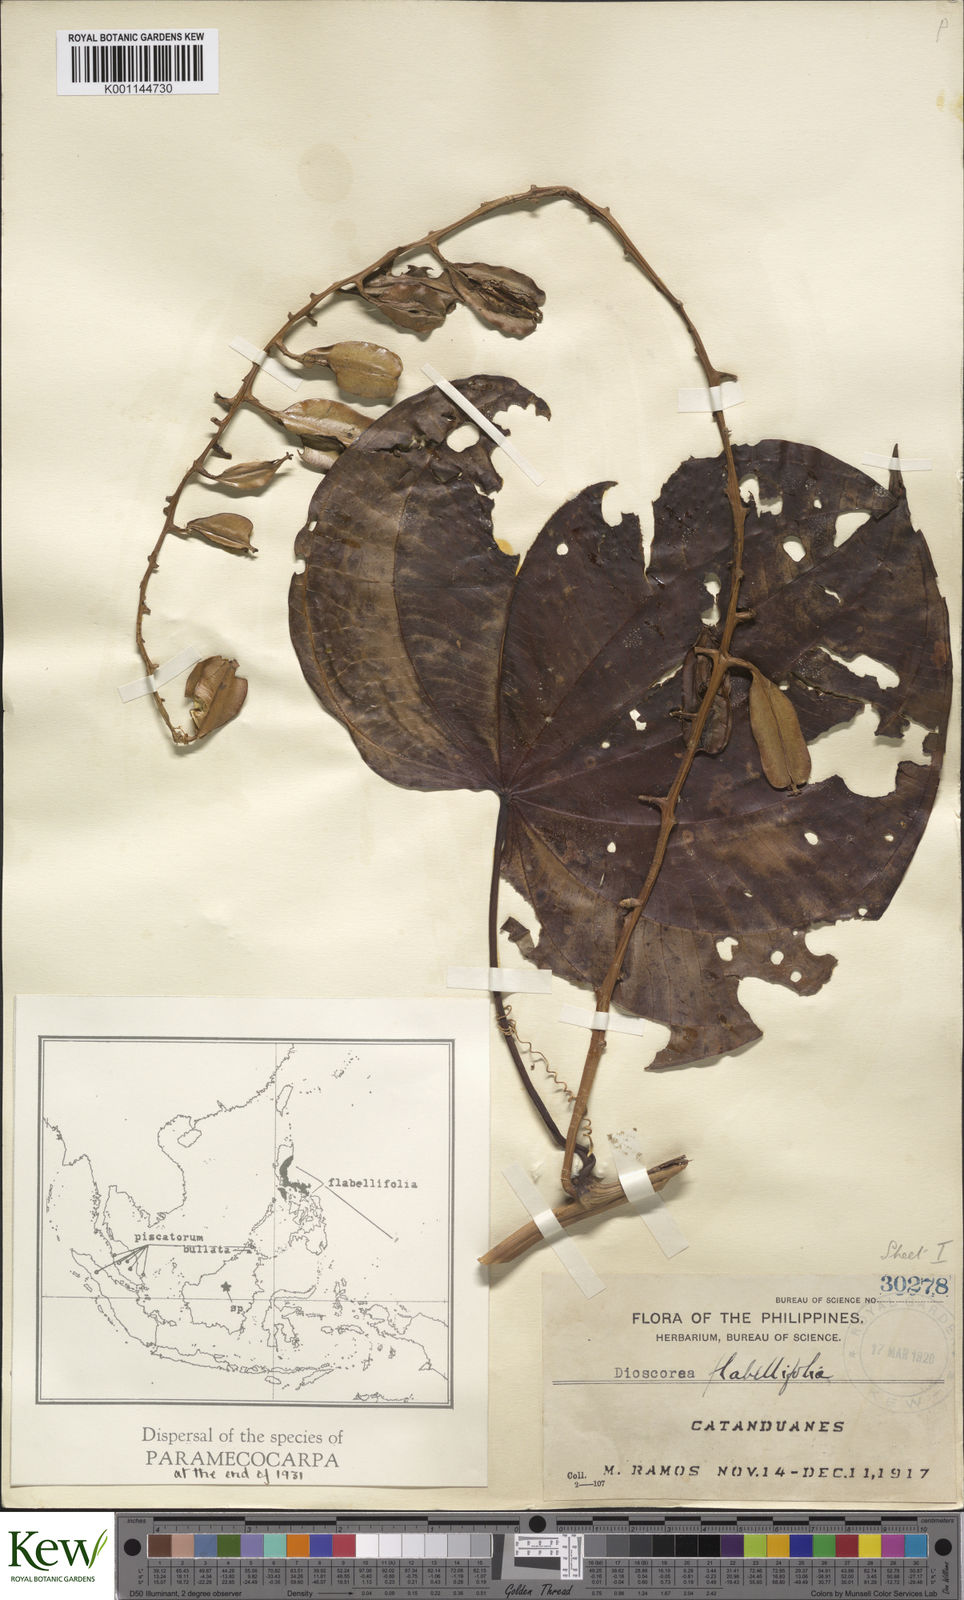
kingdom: Plantae
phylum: Tracheophyta
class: Liliopsida
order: Dioscoreales
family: Dioscoreaceae
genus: Dioscorea
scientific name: Dioscorea flabellifolia
